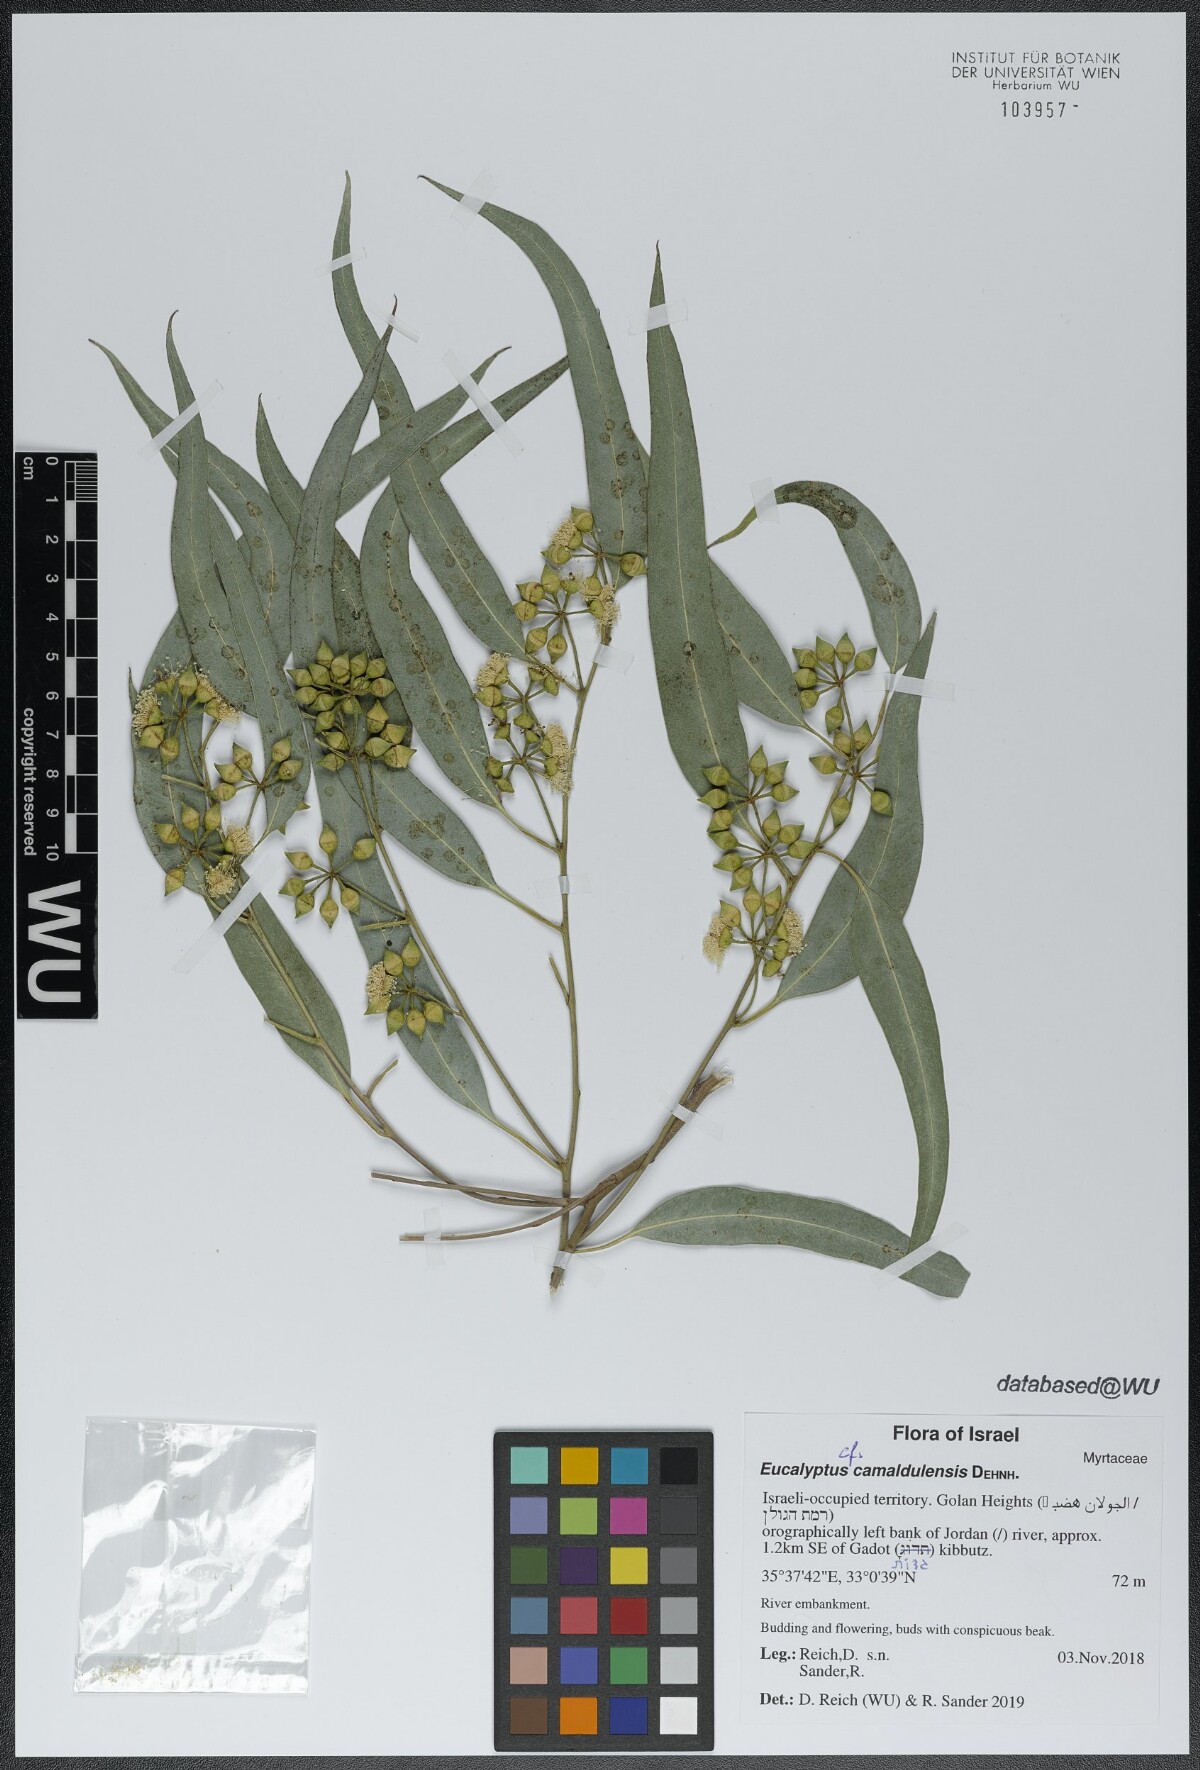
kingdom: Plantae
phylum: Tracheophyta
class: Magnoliopsida
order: Myrtales
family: Myrtaceae
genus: Eucalyptus
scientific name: Eucalyptus camaldulensis
